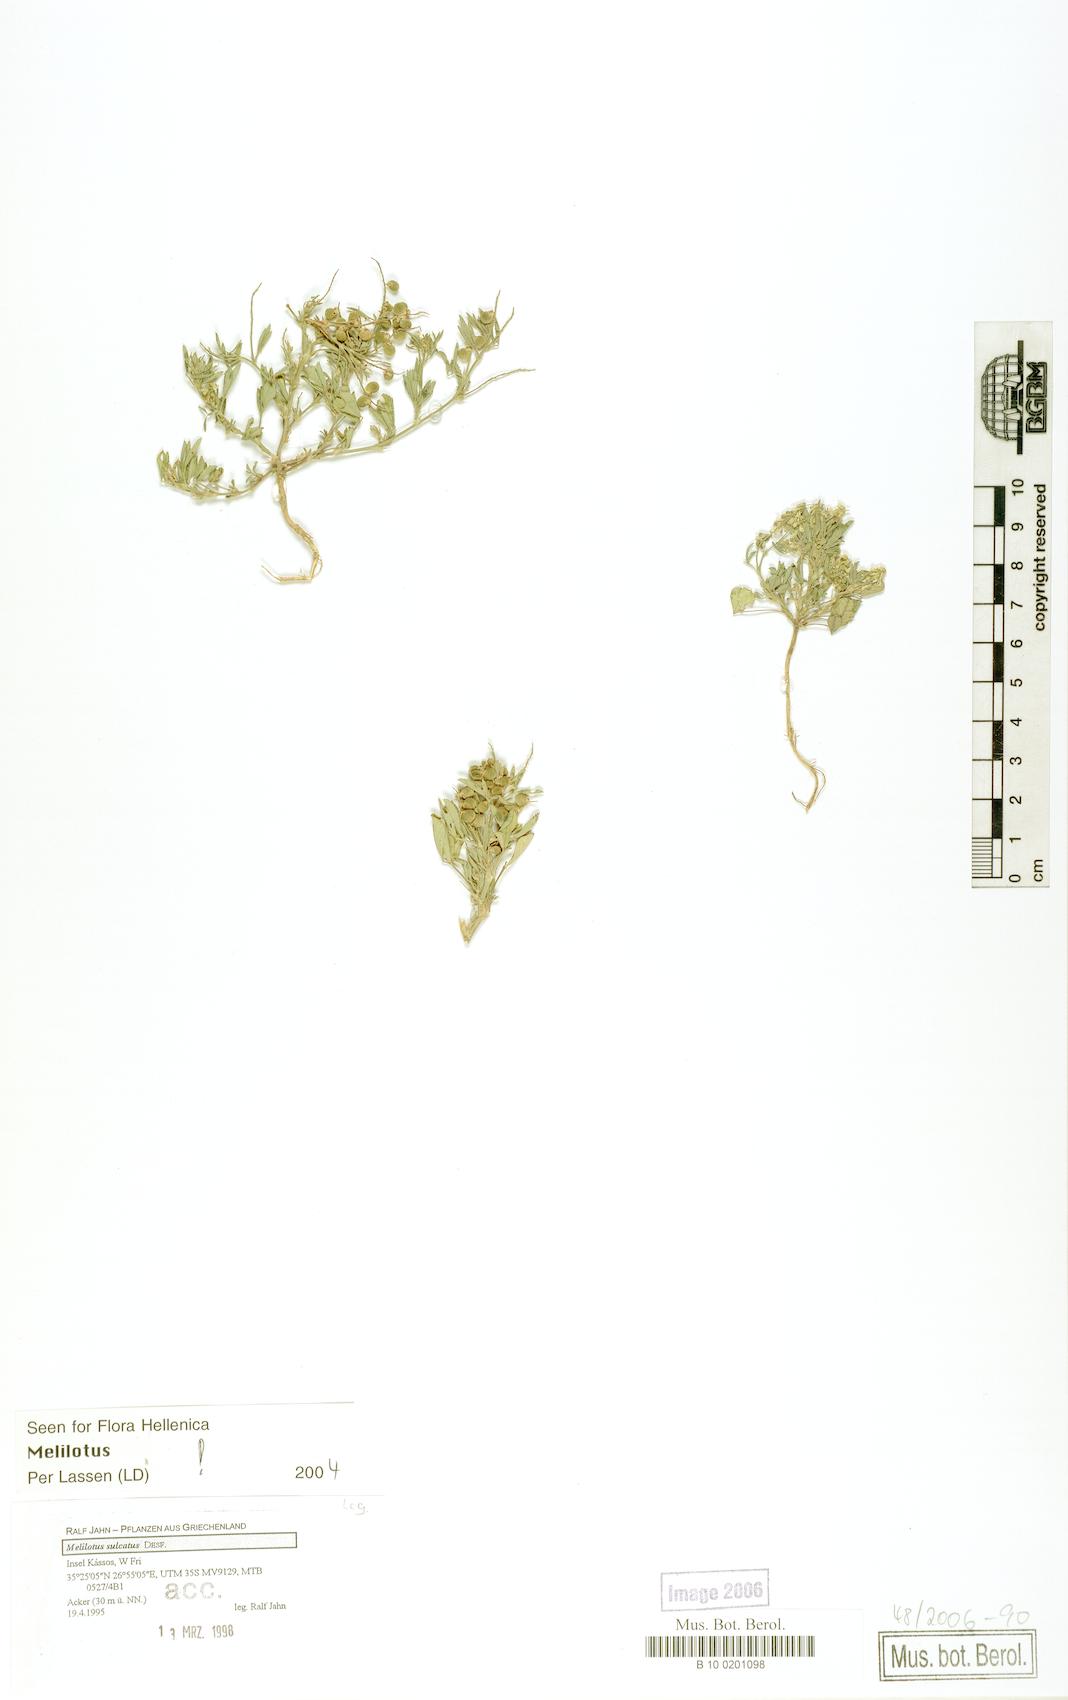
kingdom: Plantae
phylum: Tracheophyta
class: Magnoliopsida
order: Fabales
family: Fabaceae
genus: Melilotus
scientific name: Melilotus sulcatus
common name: Furrowed melilot
